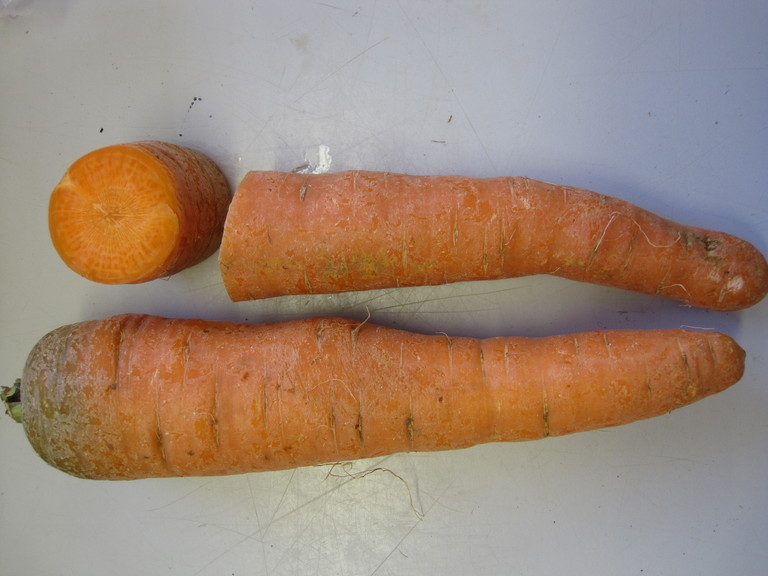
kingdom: Plantae
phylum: Tracheophyta
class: Magnoliopsida
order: Apiales
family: Apiaceae
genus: Daucus
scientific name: Daucus carota
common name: Wild carrot
